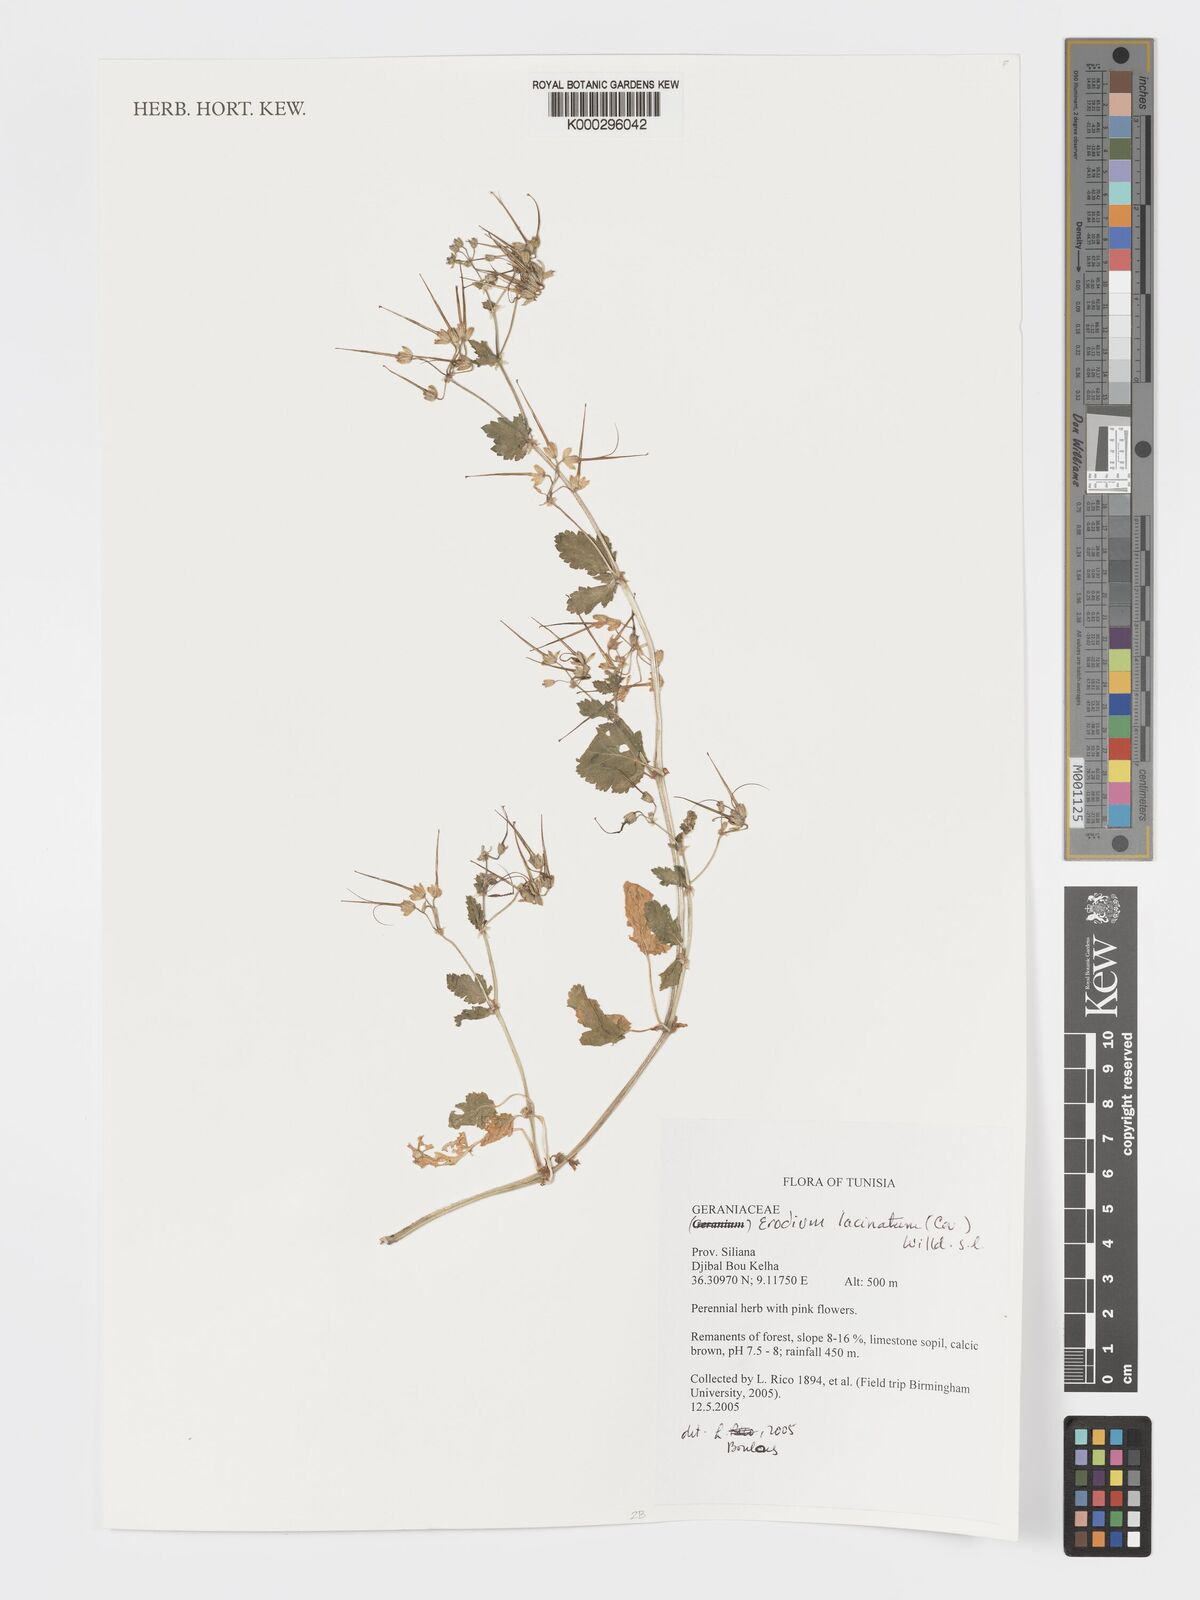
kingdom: Plantae
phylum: Tracheophyta
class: Magnoliopsida
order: Geraniales
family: Geraniaceae
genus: Erodium
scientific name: Erodium
